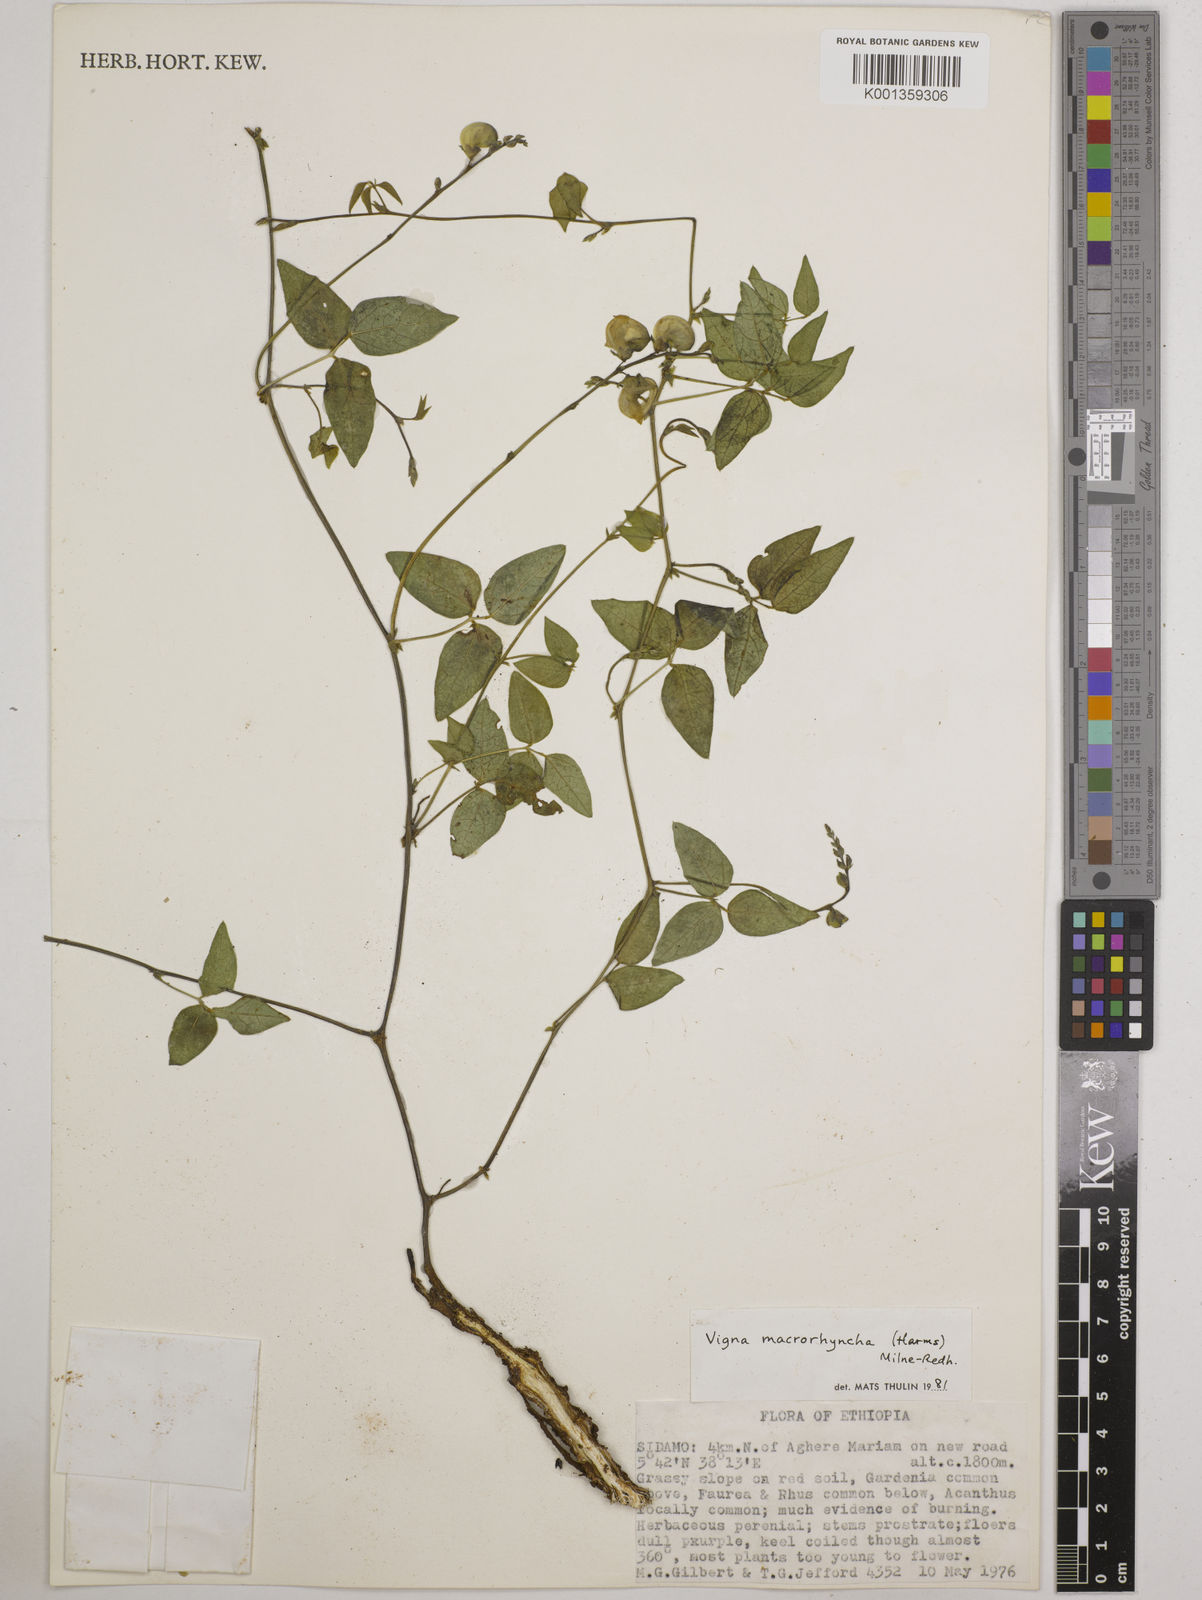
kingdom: Plantae
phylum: Tracheophyta
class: Magnoliopsida
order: Fabales
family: Fabaceae
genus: Wajira
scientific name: Wajira grahamiana
